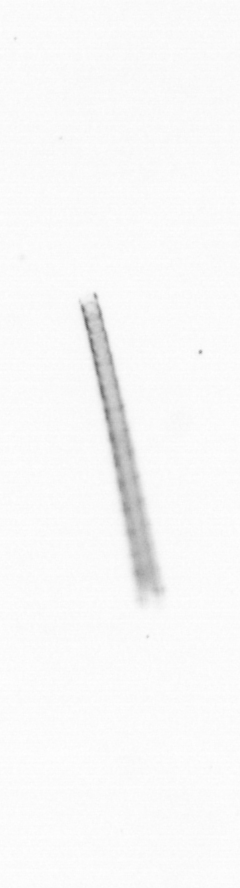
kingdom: Chromista
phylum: Ochrophyta
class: Bacillariophyceae
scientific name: Bacillariophyceae
